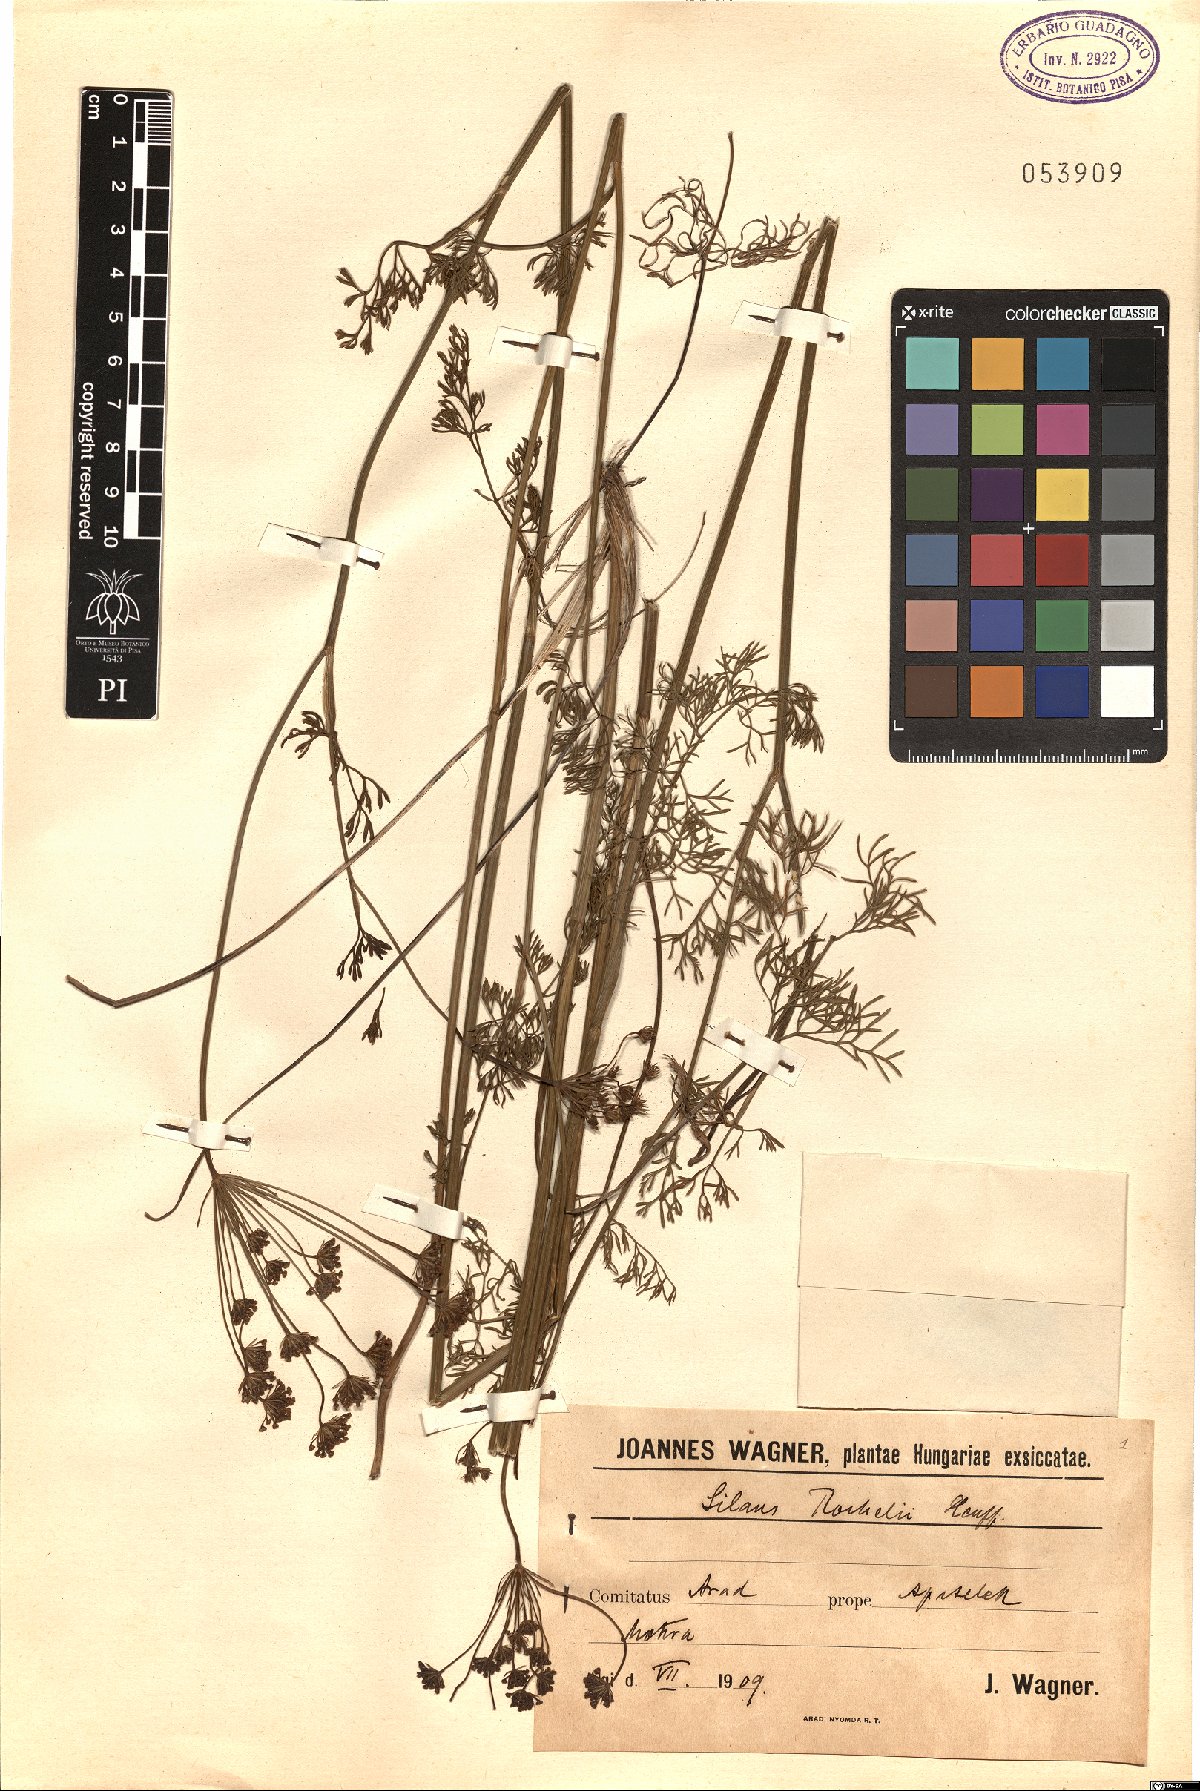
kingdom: Plantae
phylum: Tracheophyta
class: Magnoliopsida
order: Apiales
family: Apiaceae
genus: Gasparinia
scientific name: Gasparinia peucedanoides
